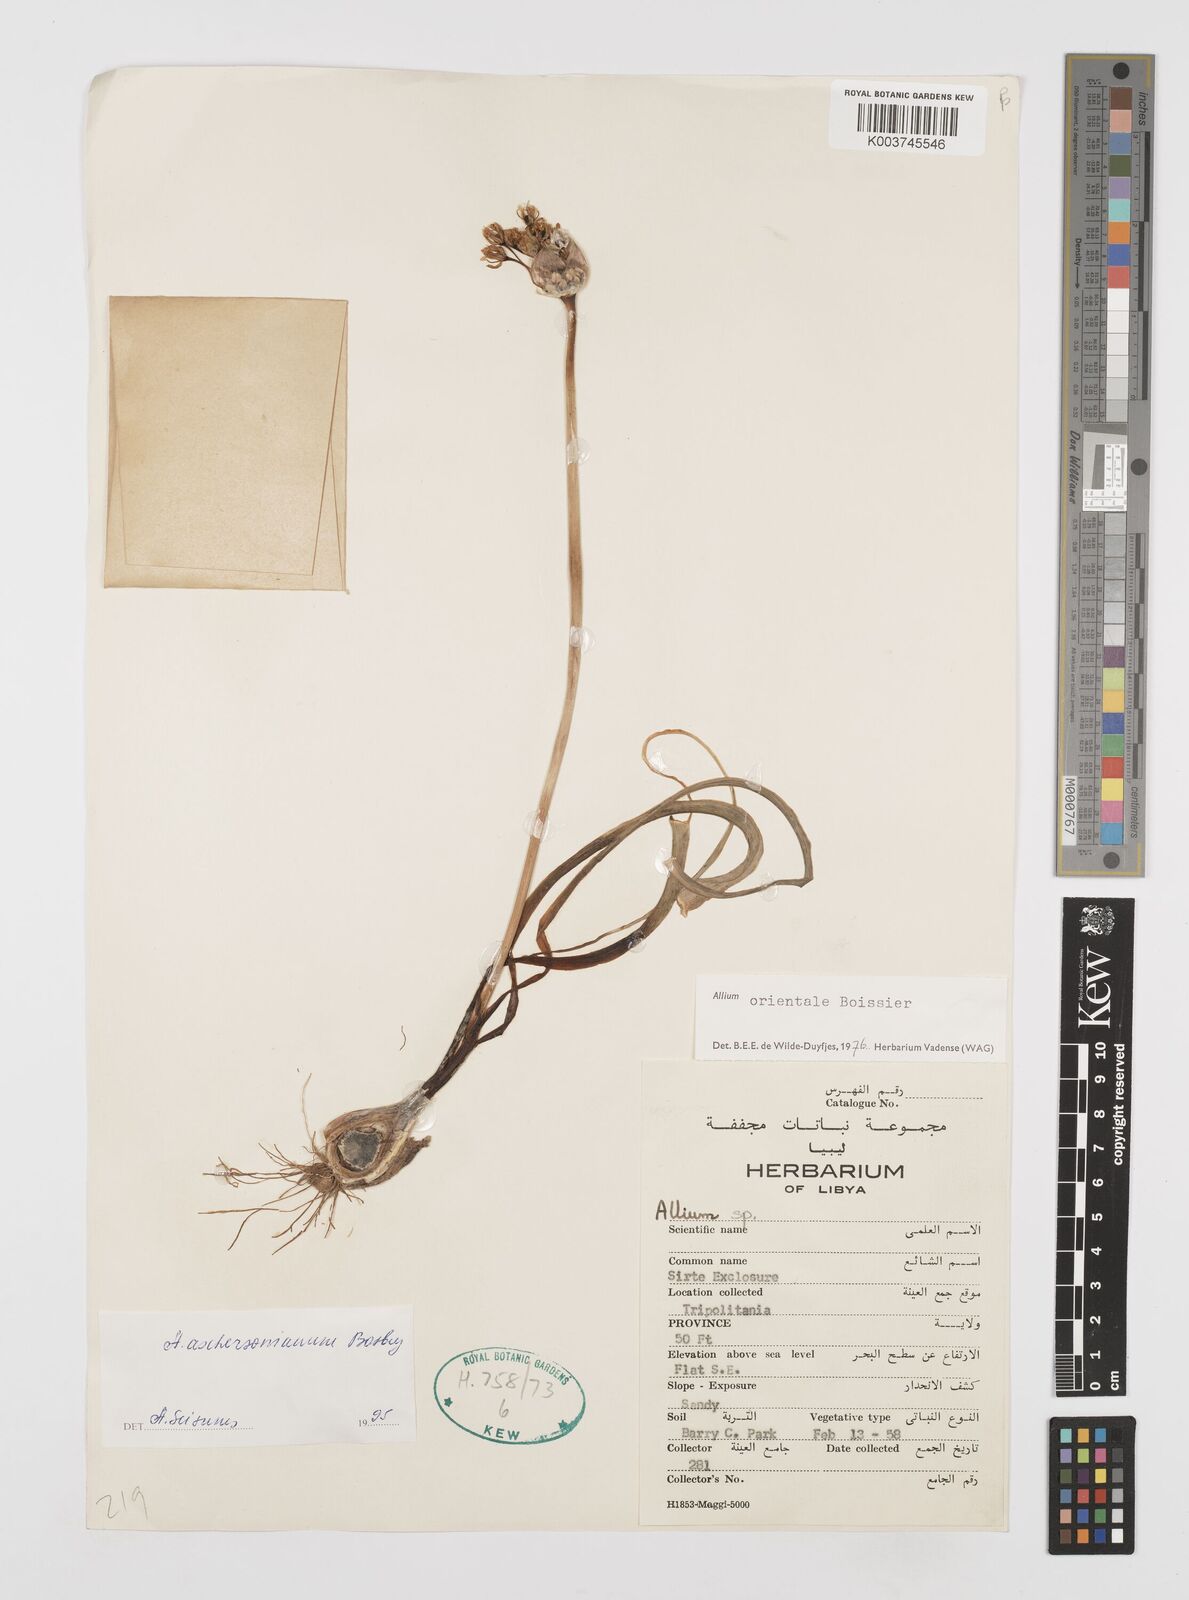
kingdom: Plantae
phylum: Tracheophyta
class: Liliopsida
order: Asparagales
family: Amaryllidaceae
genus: Allium
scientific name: Allium orientale
